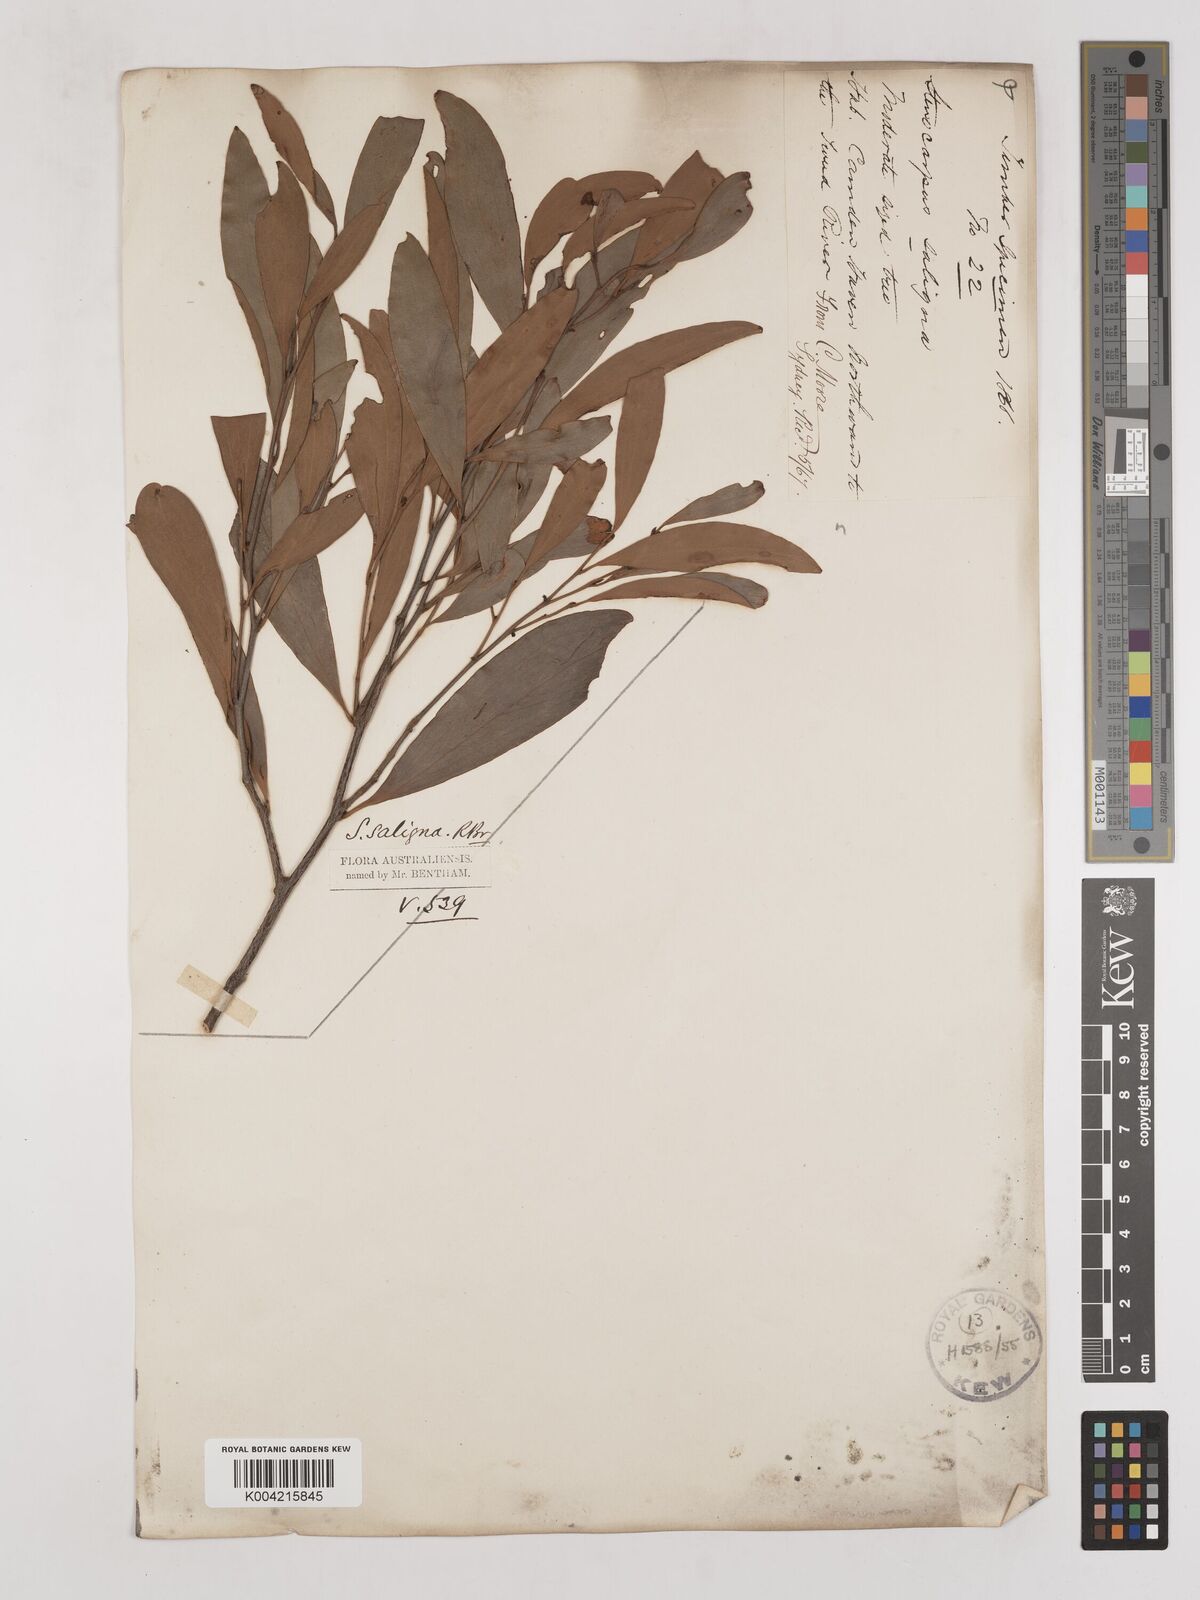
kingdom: Plantae
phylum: Tracheophyta
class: Magnoliopsida
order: Proteales
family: Proteaceae
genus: Stenocarpus
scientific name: Stenocarpus salignus
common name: Red silky-oak
